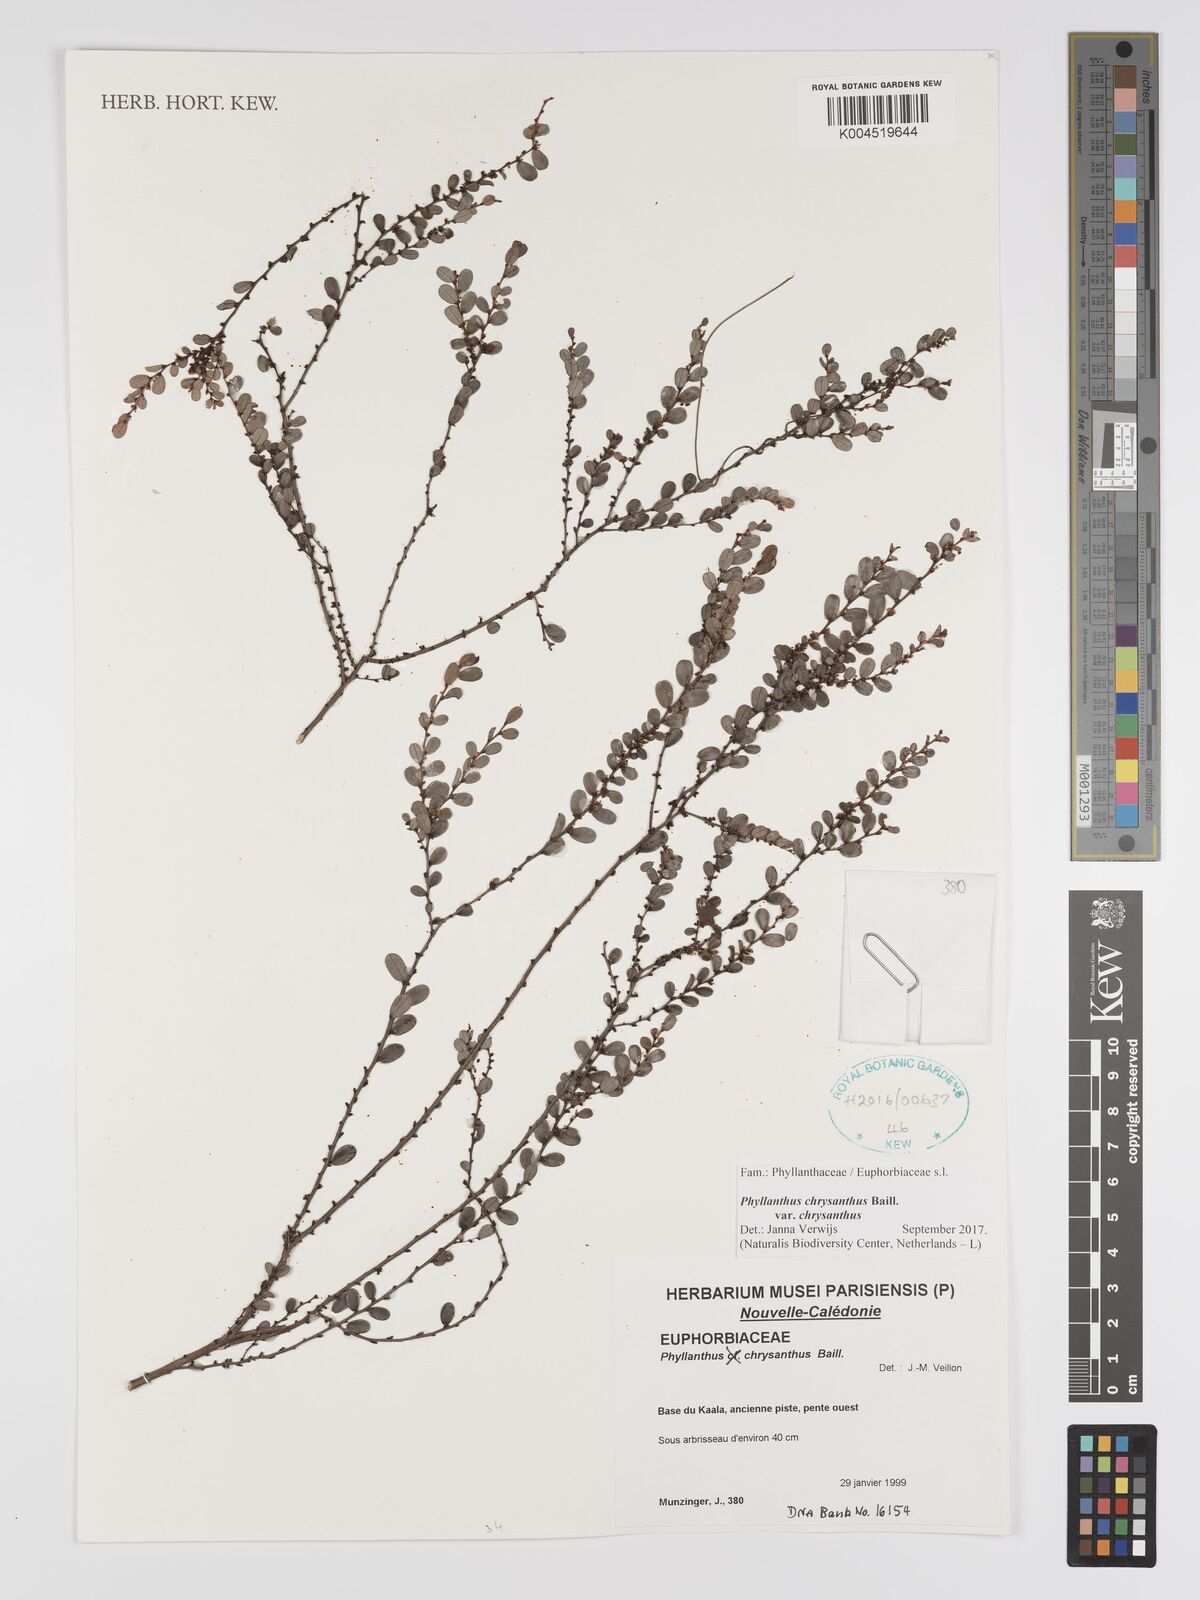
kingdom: Plantae
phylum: Tracheophyta
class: Magnoliopsida
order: Malpighiales
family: Phyllanthaceae
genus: Phyllanthus
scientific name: Phyllanthus chrysanthus
